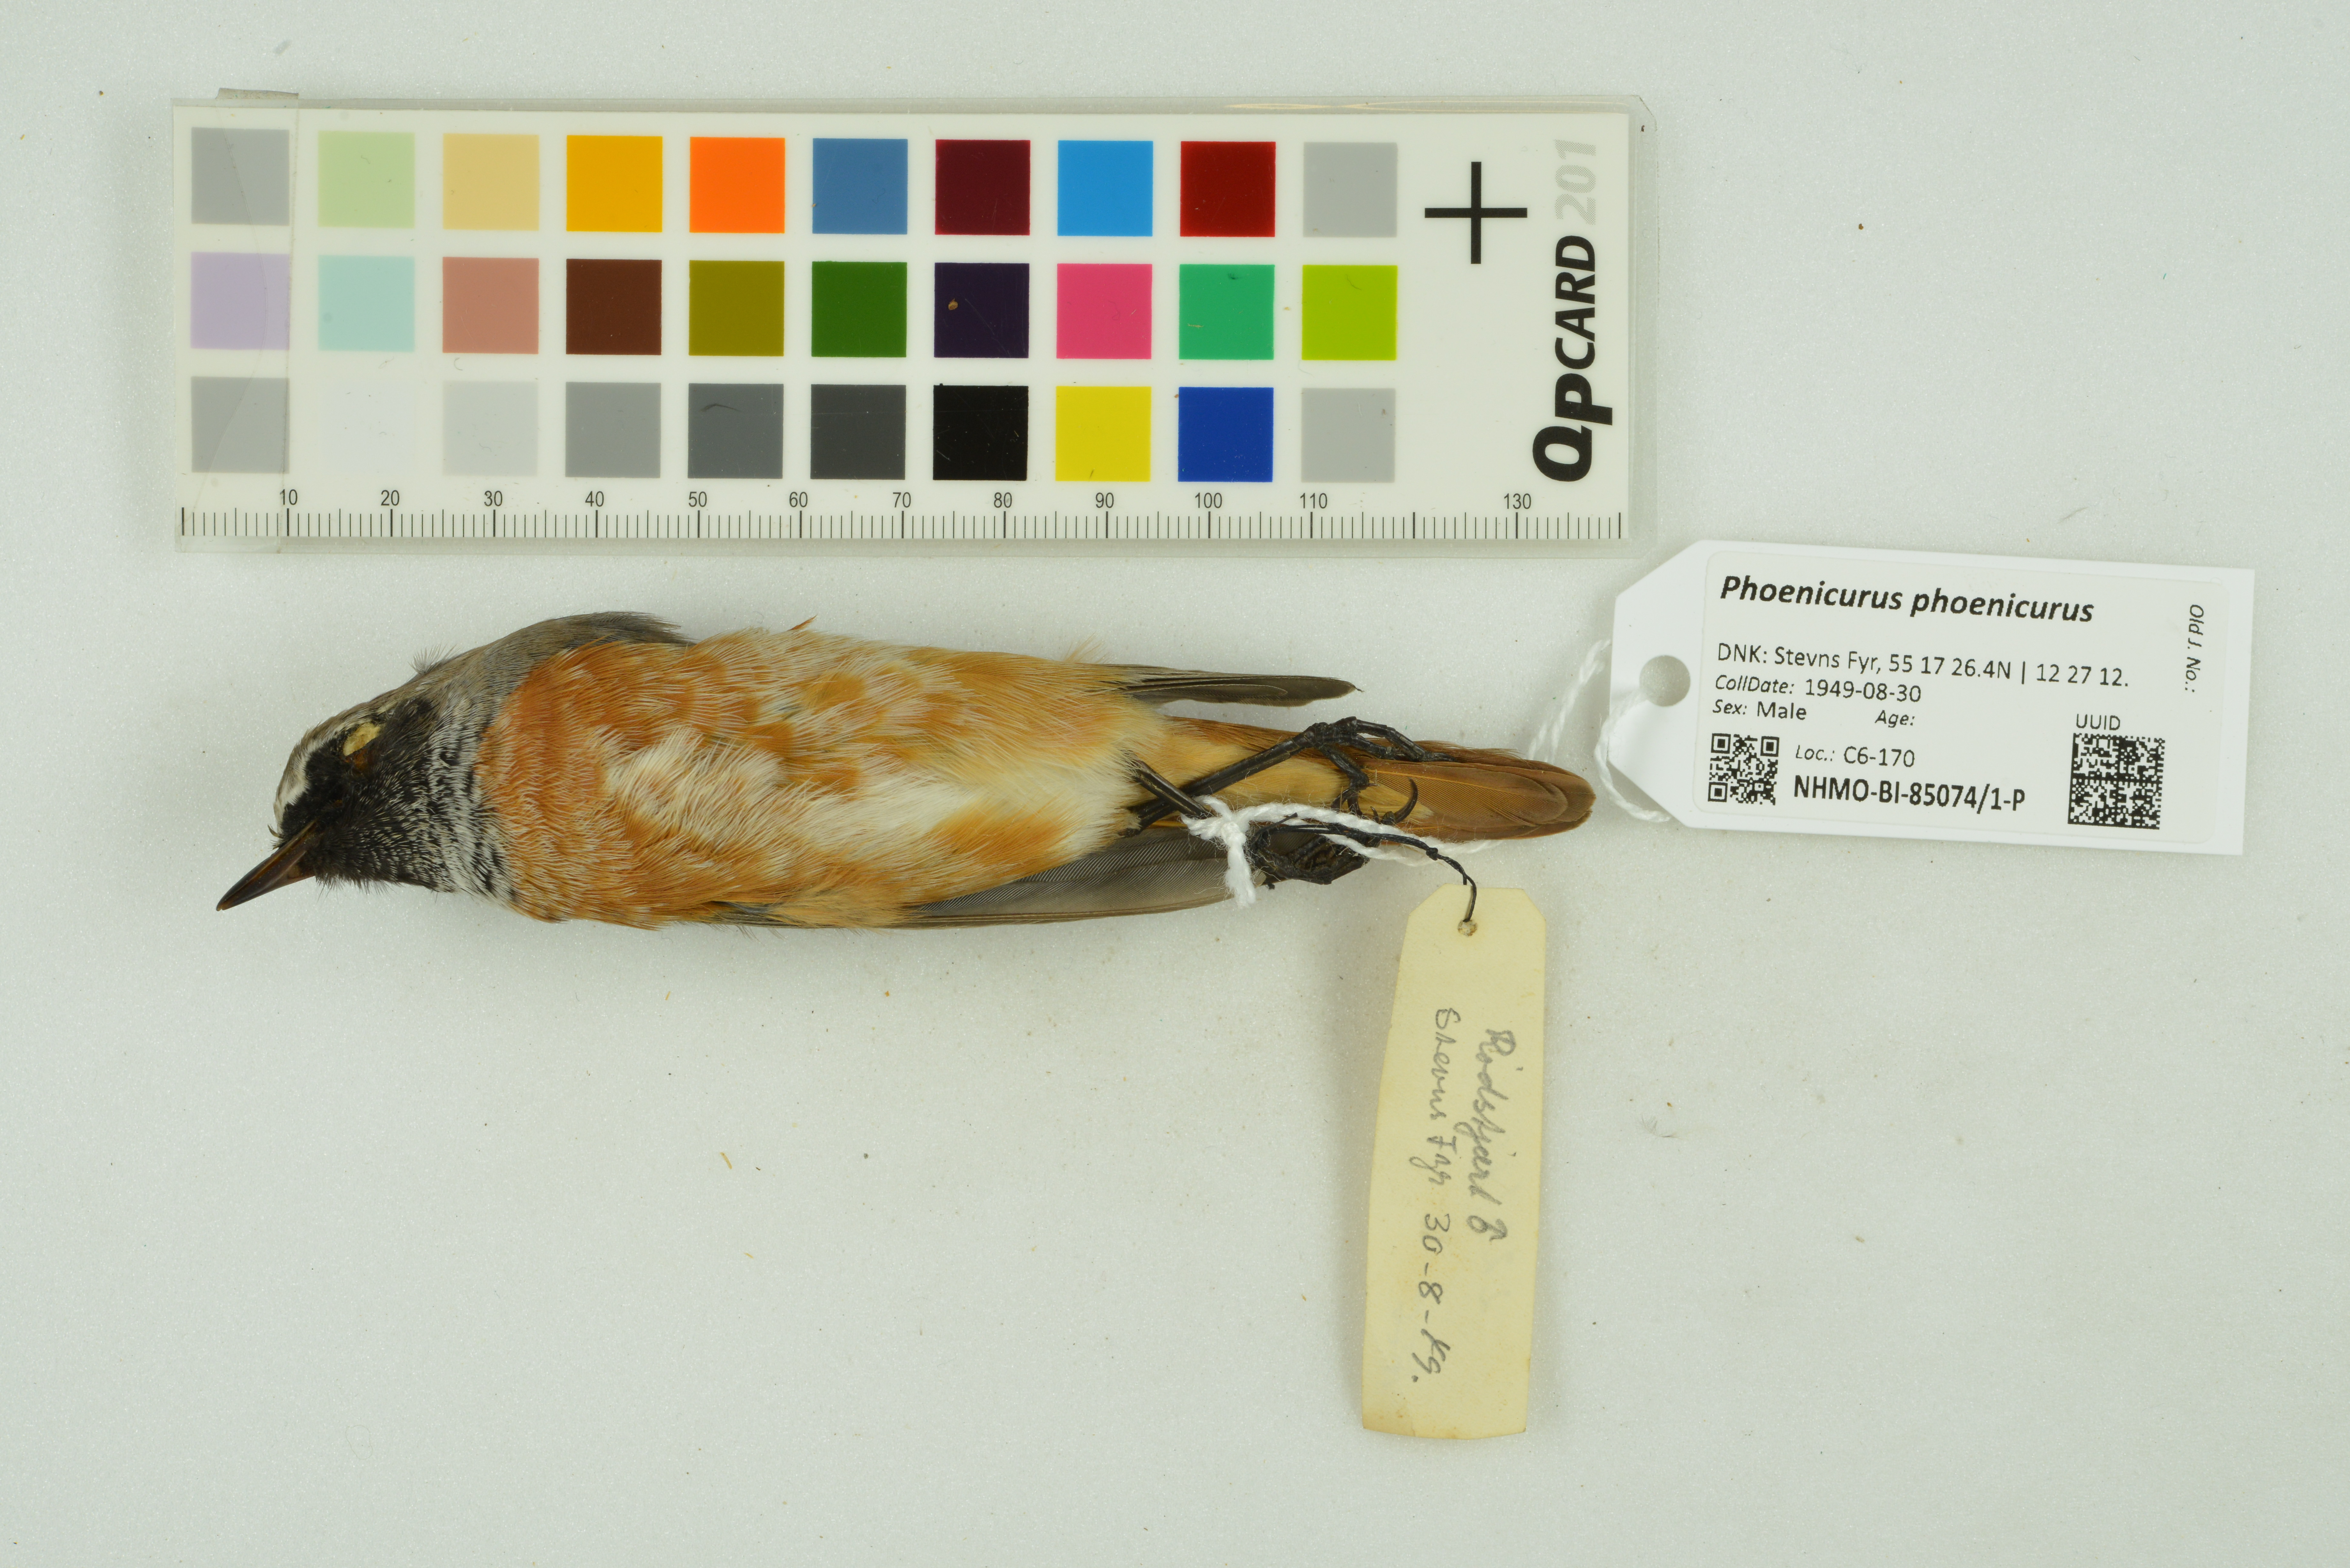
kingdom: Animalia
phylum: Chordata
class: Aves
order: Passeriformes
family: Muscicapidae
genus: Phoenicurus
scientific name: Phoenicurus phoenicurus
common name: Common redstart
